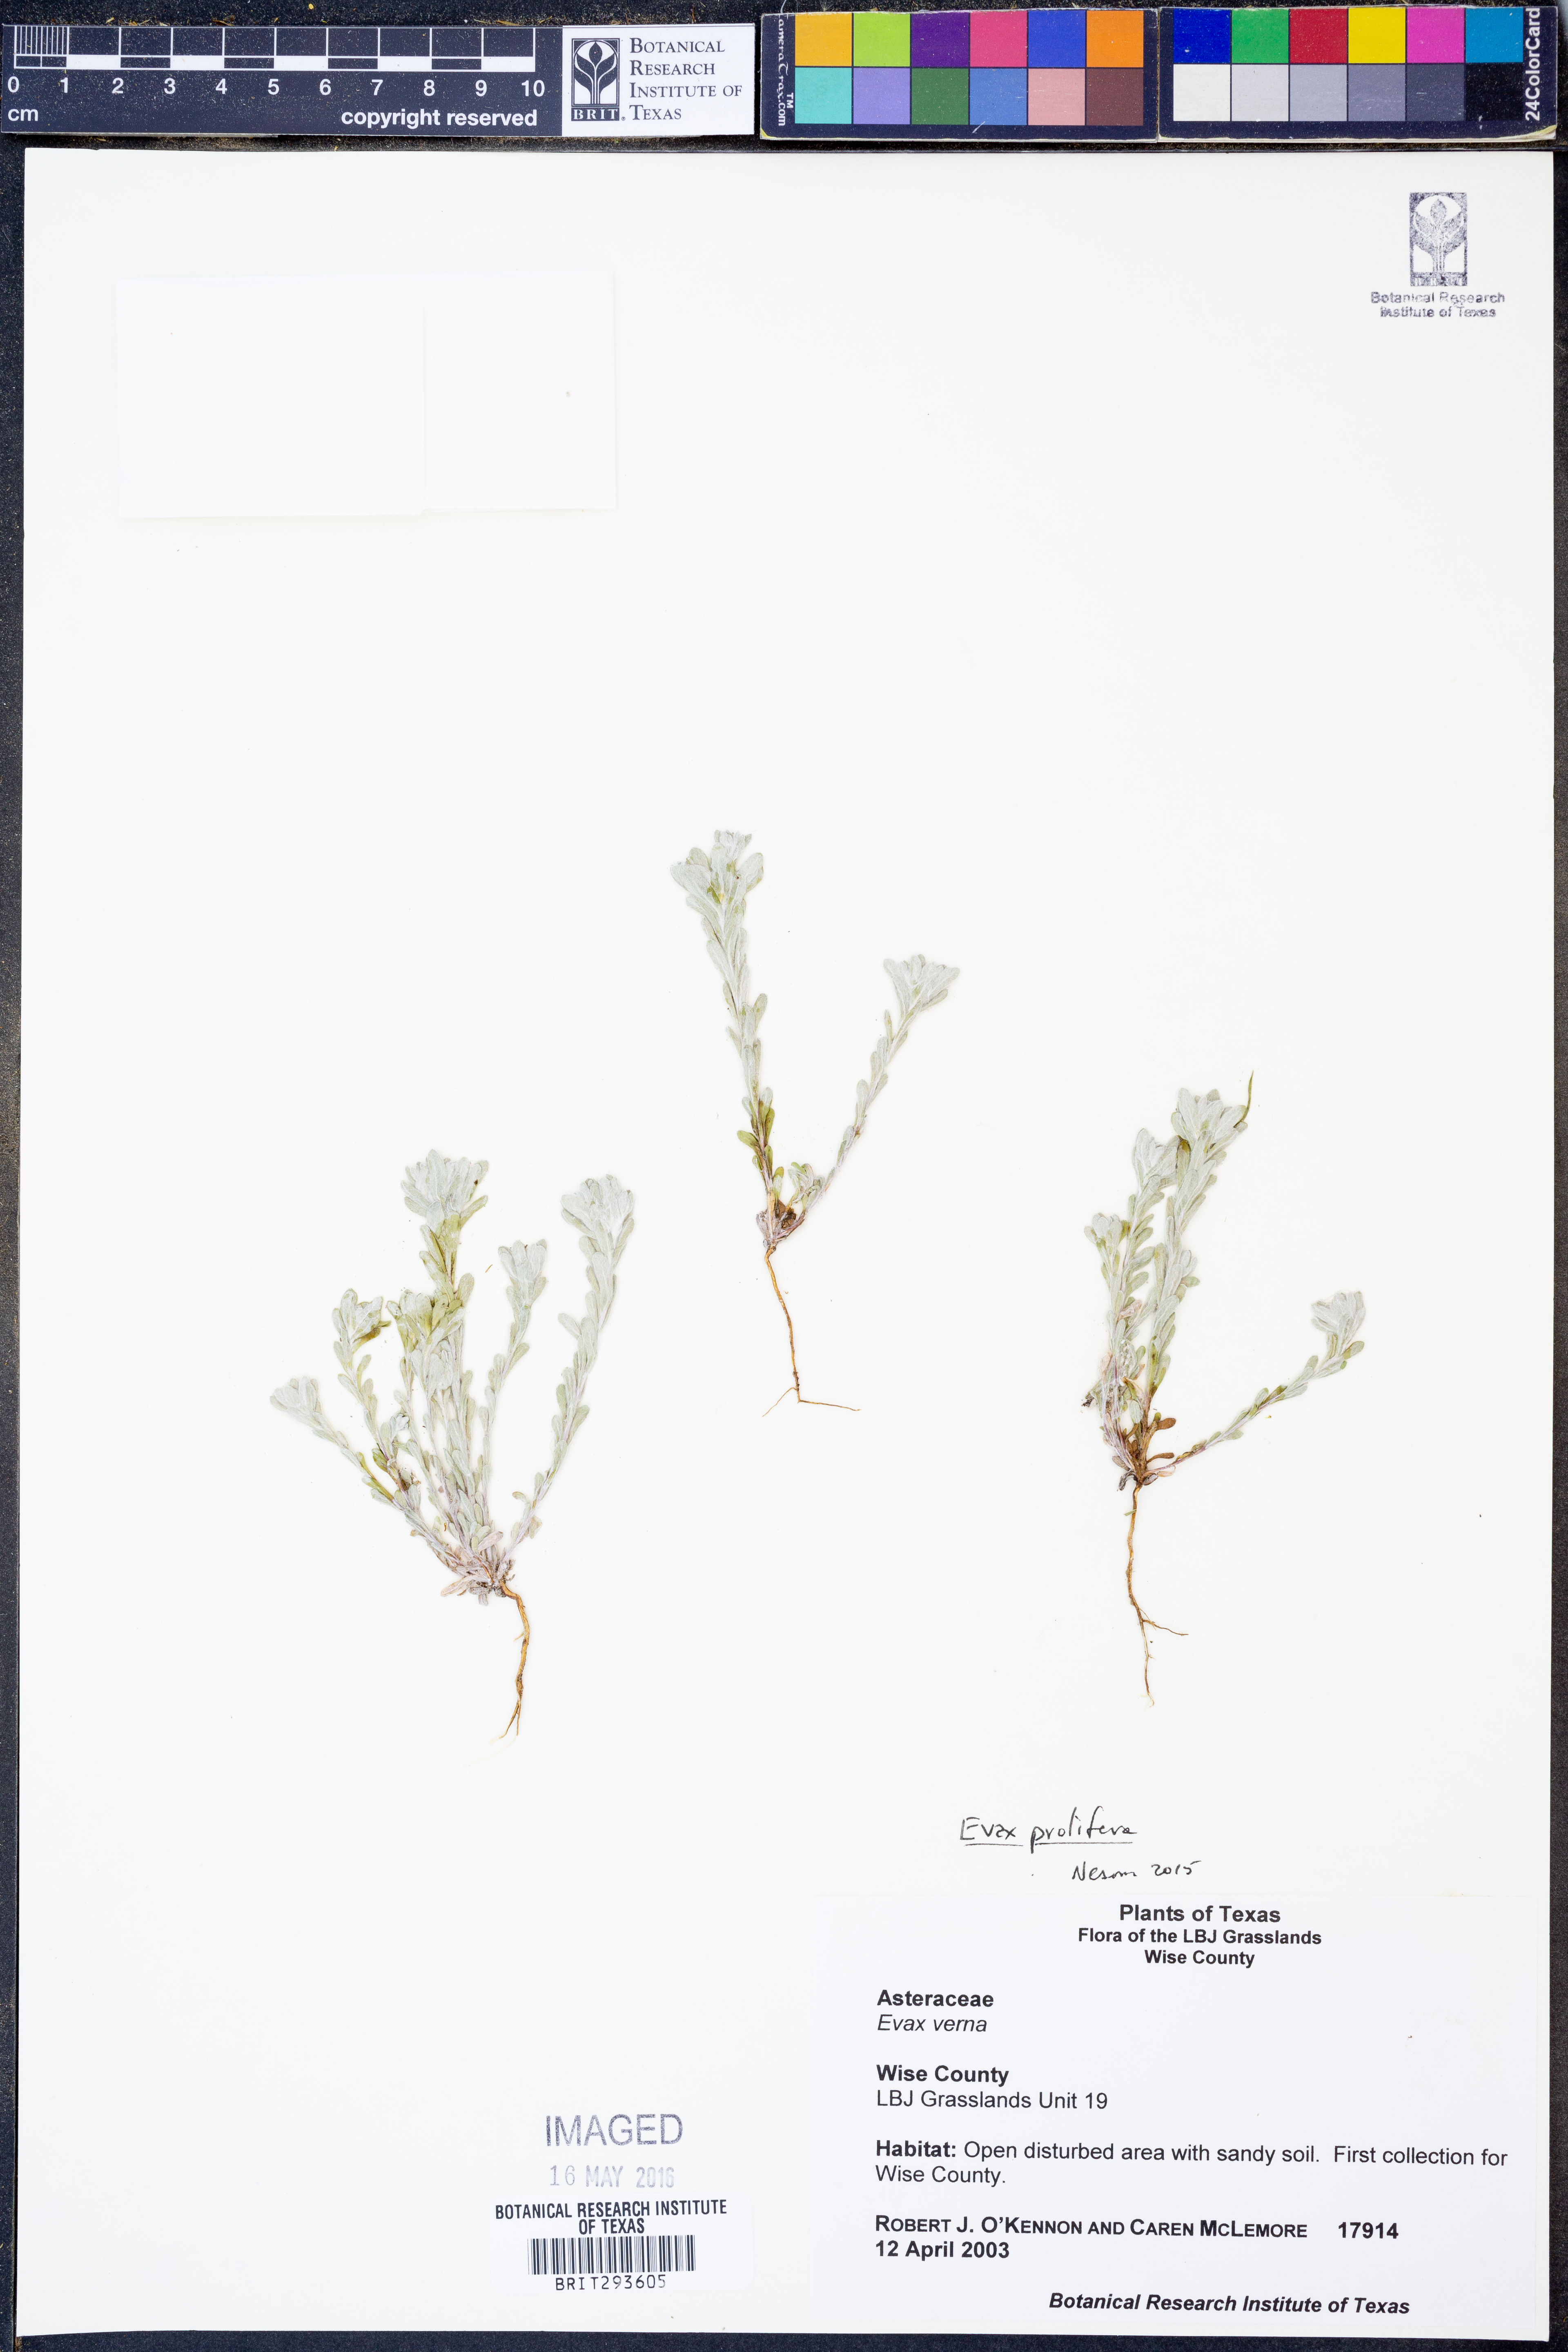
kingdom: Plantae
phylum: Tracheophyta
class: Magnoliopsida
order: Asterales
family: Asteraceae
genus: Diaperia
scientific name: Diaperia prolifera
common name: Big-head rabbit-tobacco
